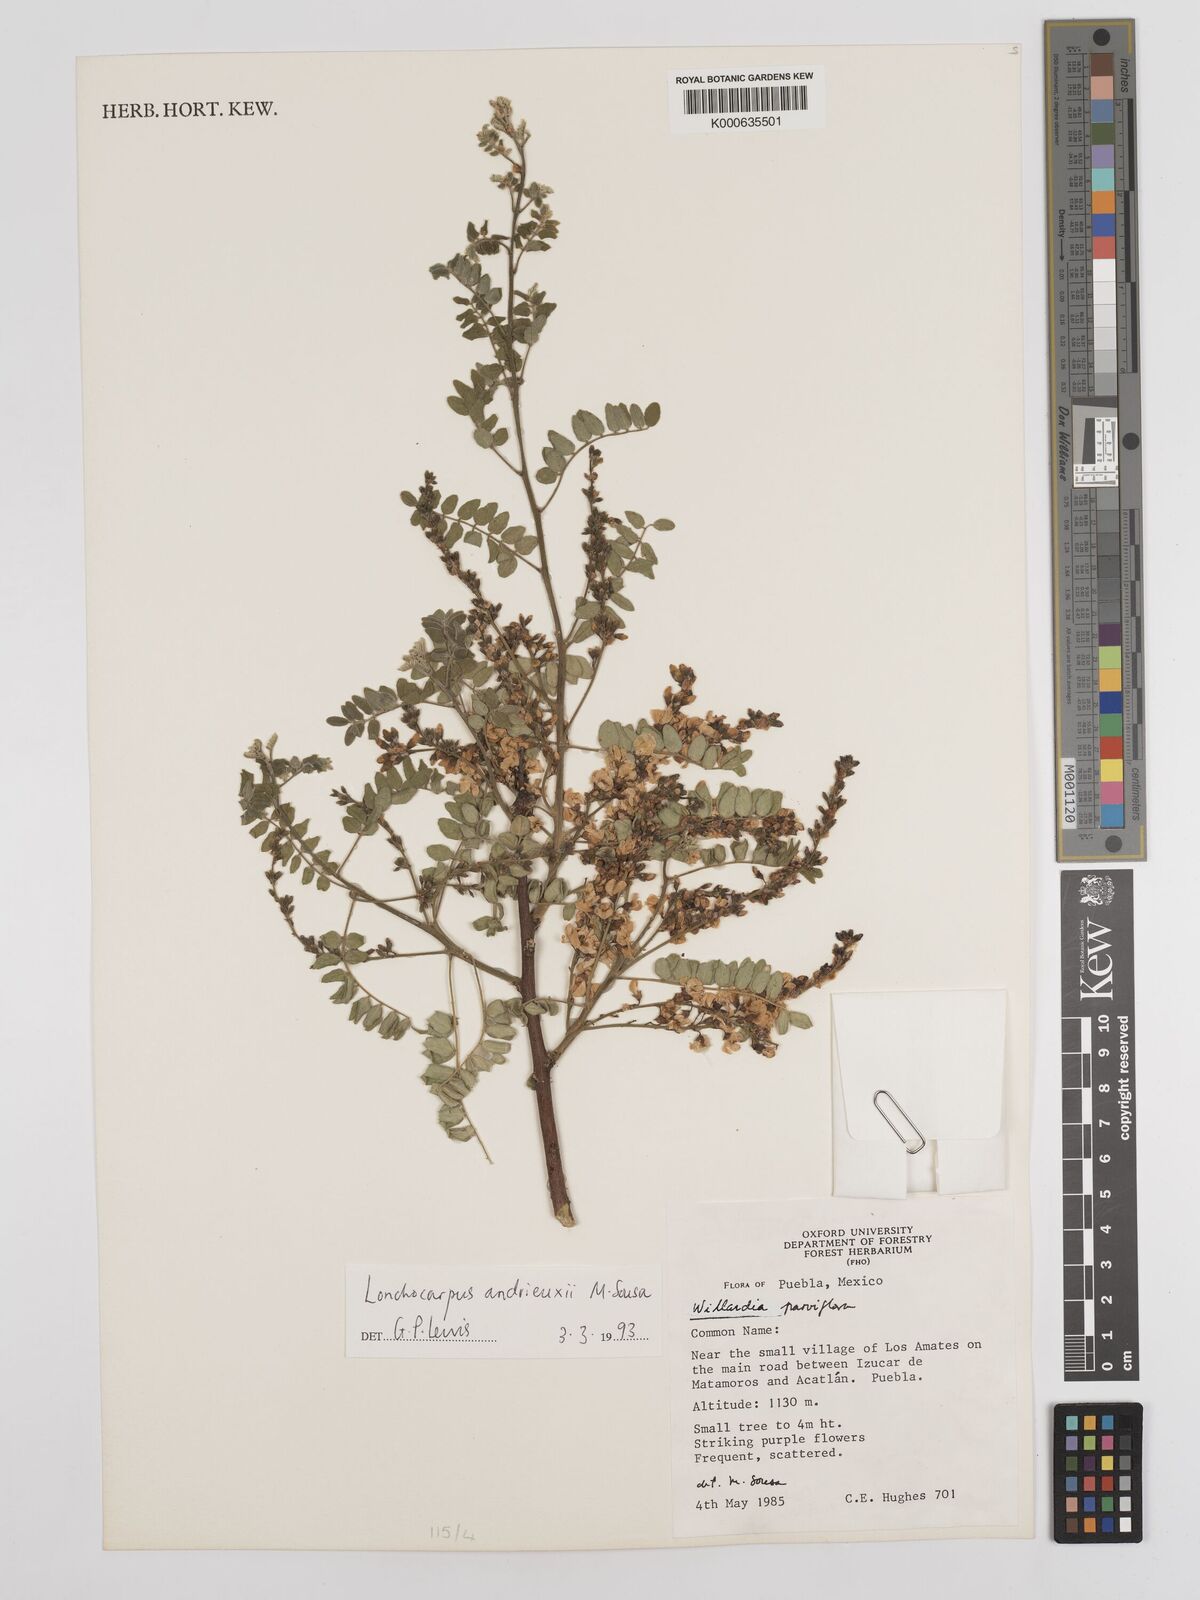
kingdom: Plantae
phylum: Tracheophyta
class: Magnoliopsida
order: Fabales
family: Fabaceae
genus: Lonchocarpus
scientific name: Lonchocarpus andrieuxii
